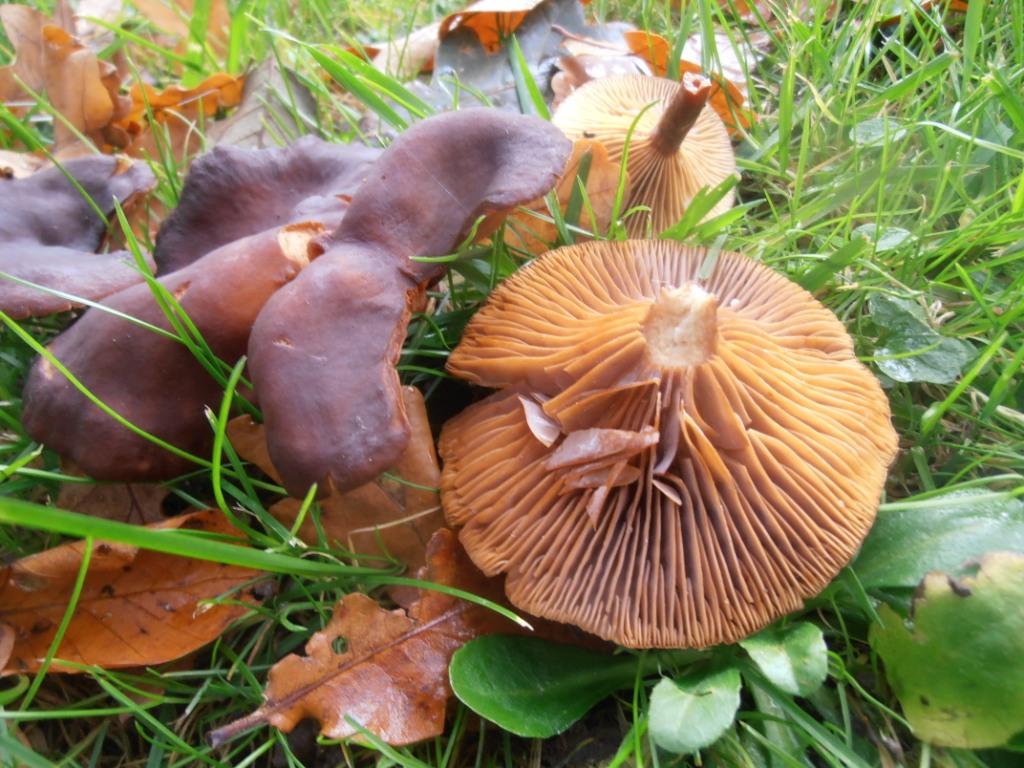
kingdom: Fungi
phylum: Basidiomycota
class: Agaricomycetes
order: Russulales
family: Russulaceae
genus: Lactarius
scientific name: Lactarius serifluus
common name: tæge-mælkehat
